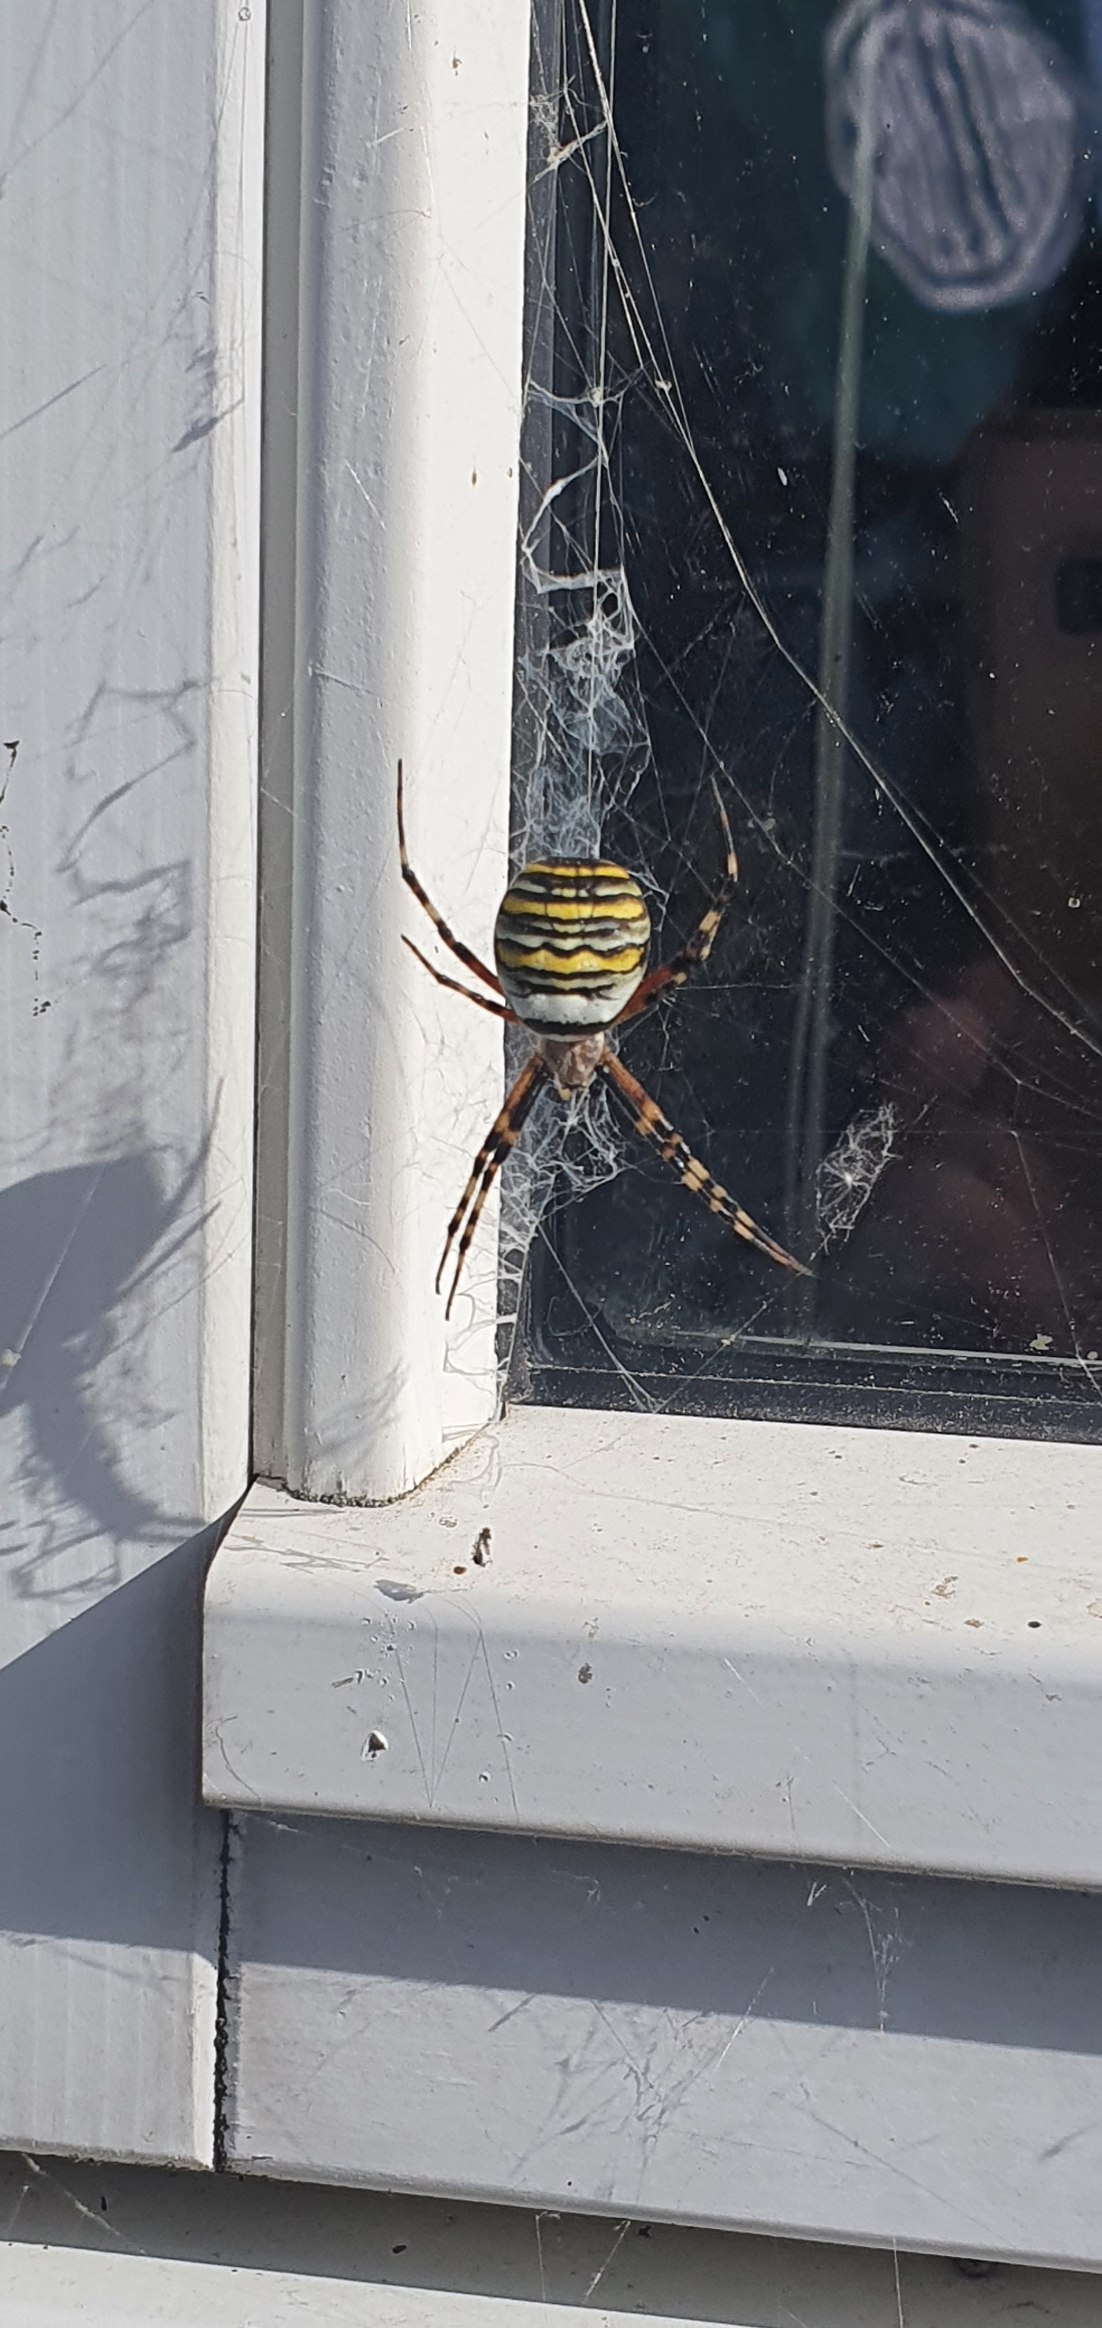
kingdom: Animalia
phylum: Arthropoda
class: Arachnida
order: Araneae
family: Araneidae
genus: Argiope
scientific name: Argiope bruennichi
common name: Hvepseedderkop
